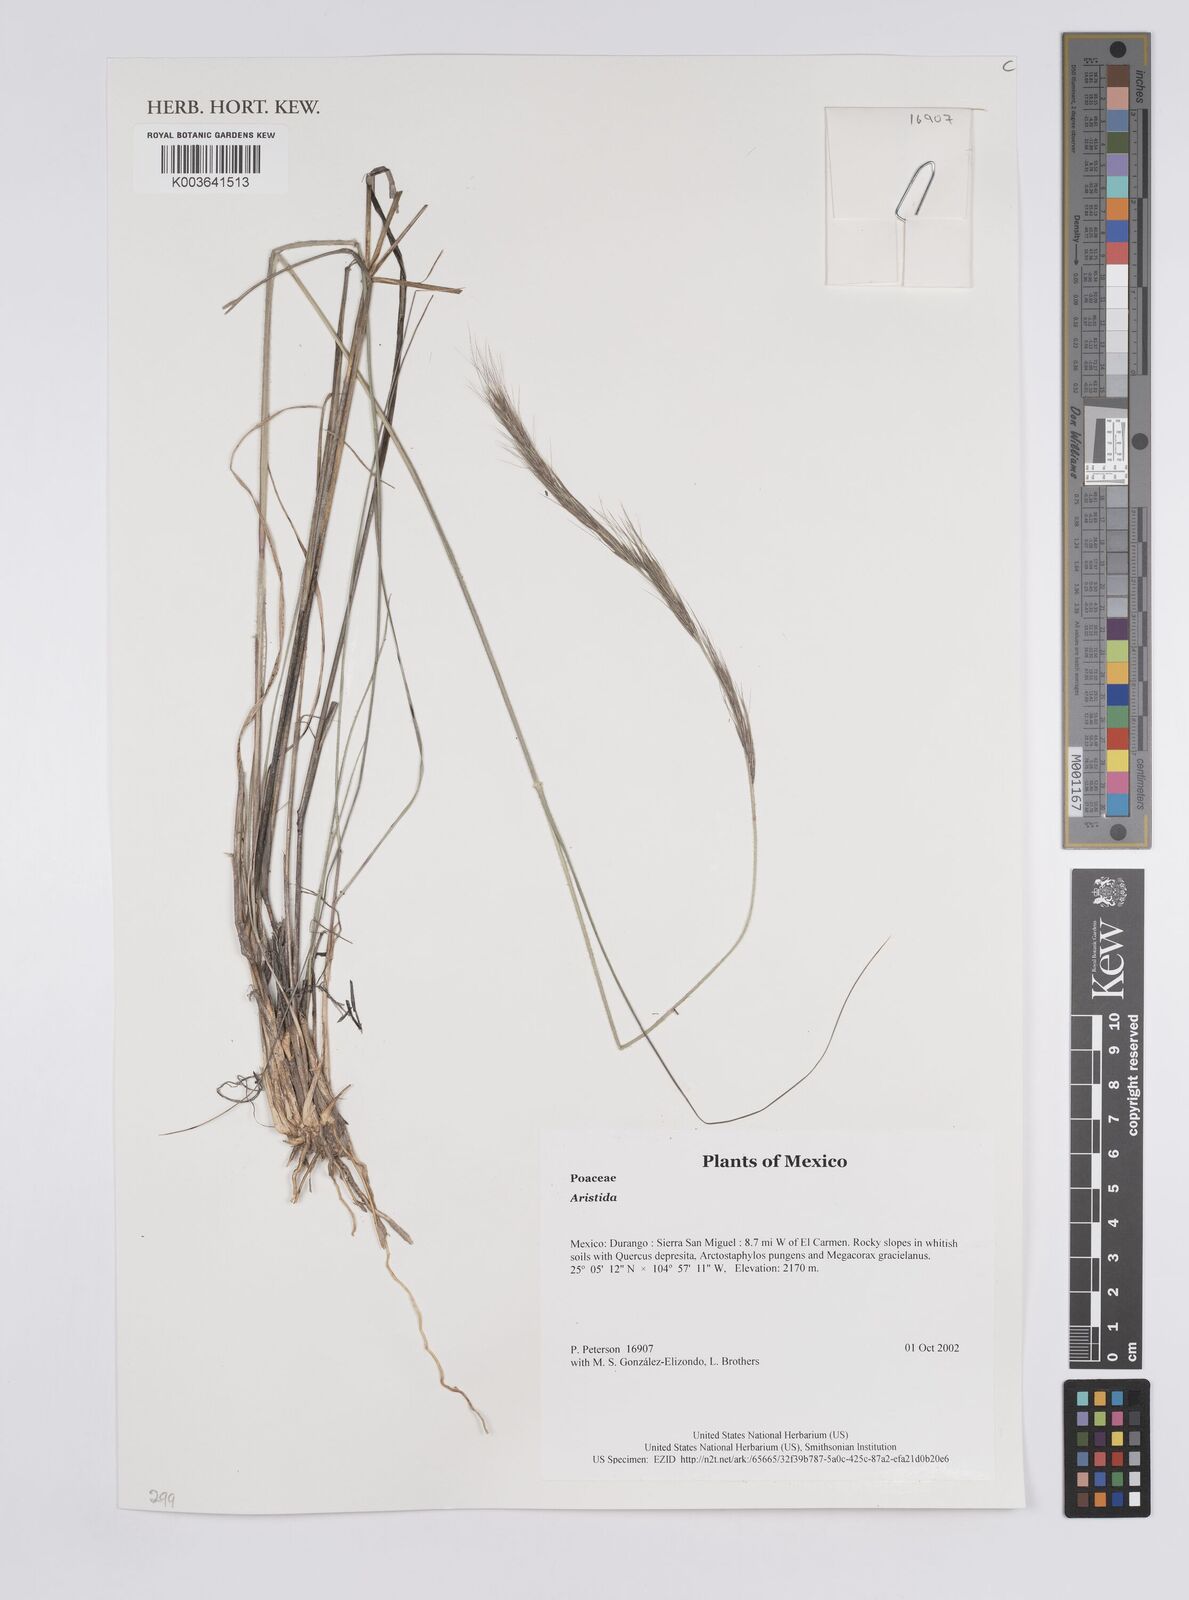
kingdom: Plantae
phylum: Tracheophyta
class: Liliopsida
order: Poales
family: Poaceae
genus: Aristida
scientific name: Aristida
